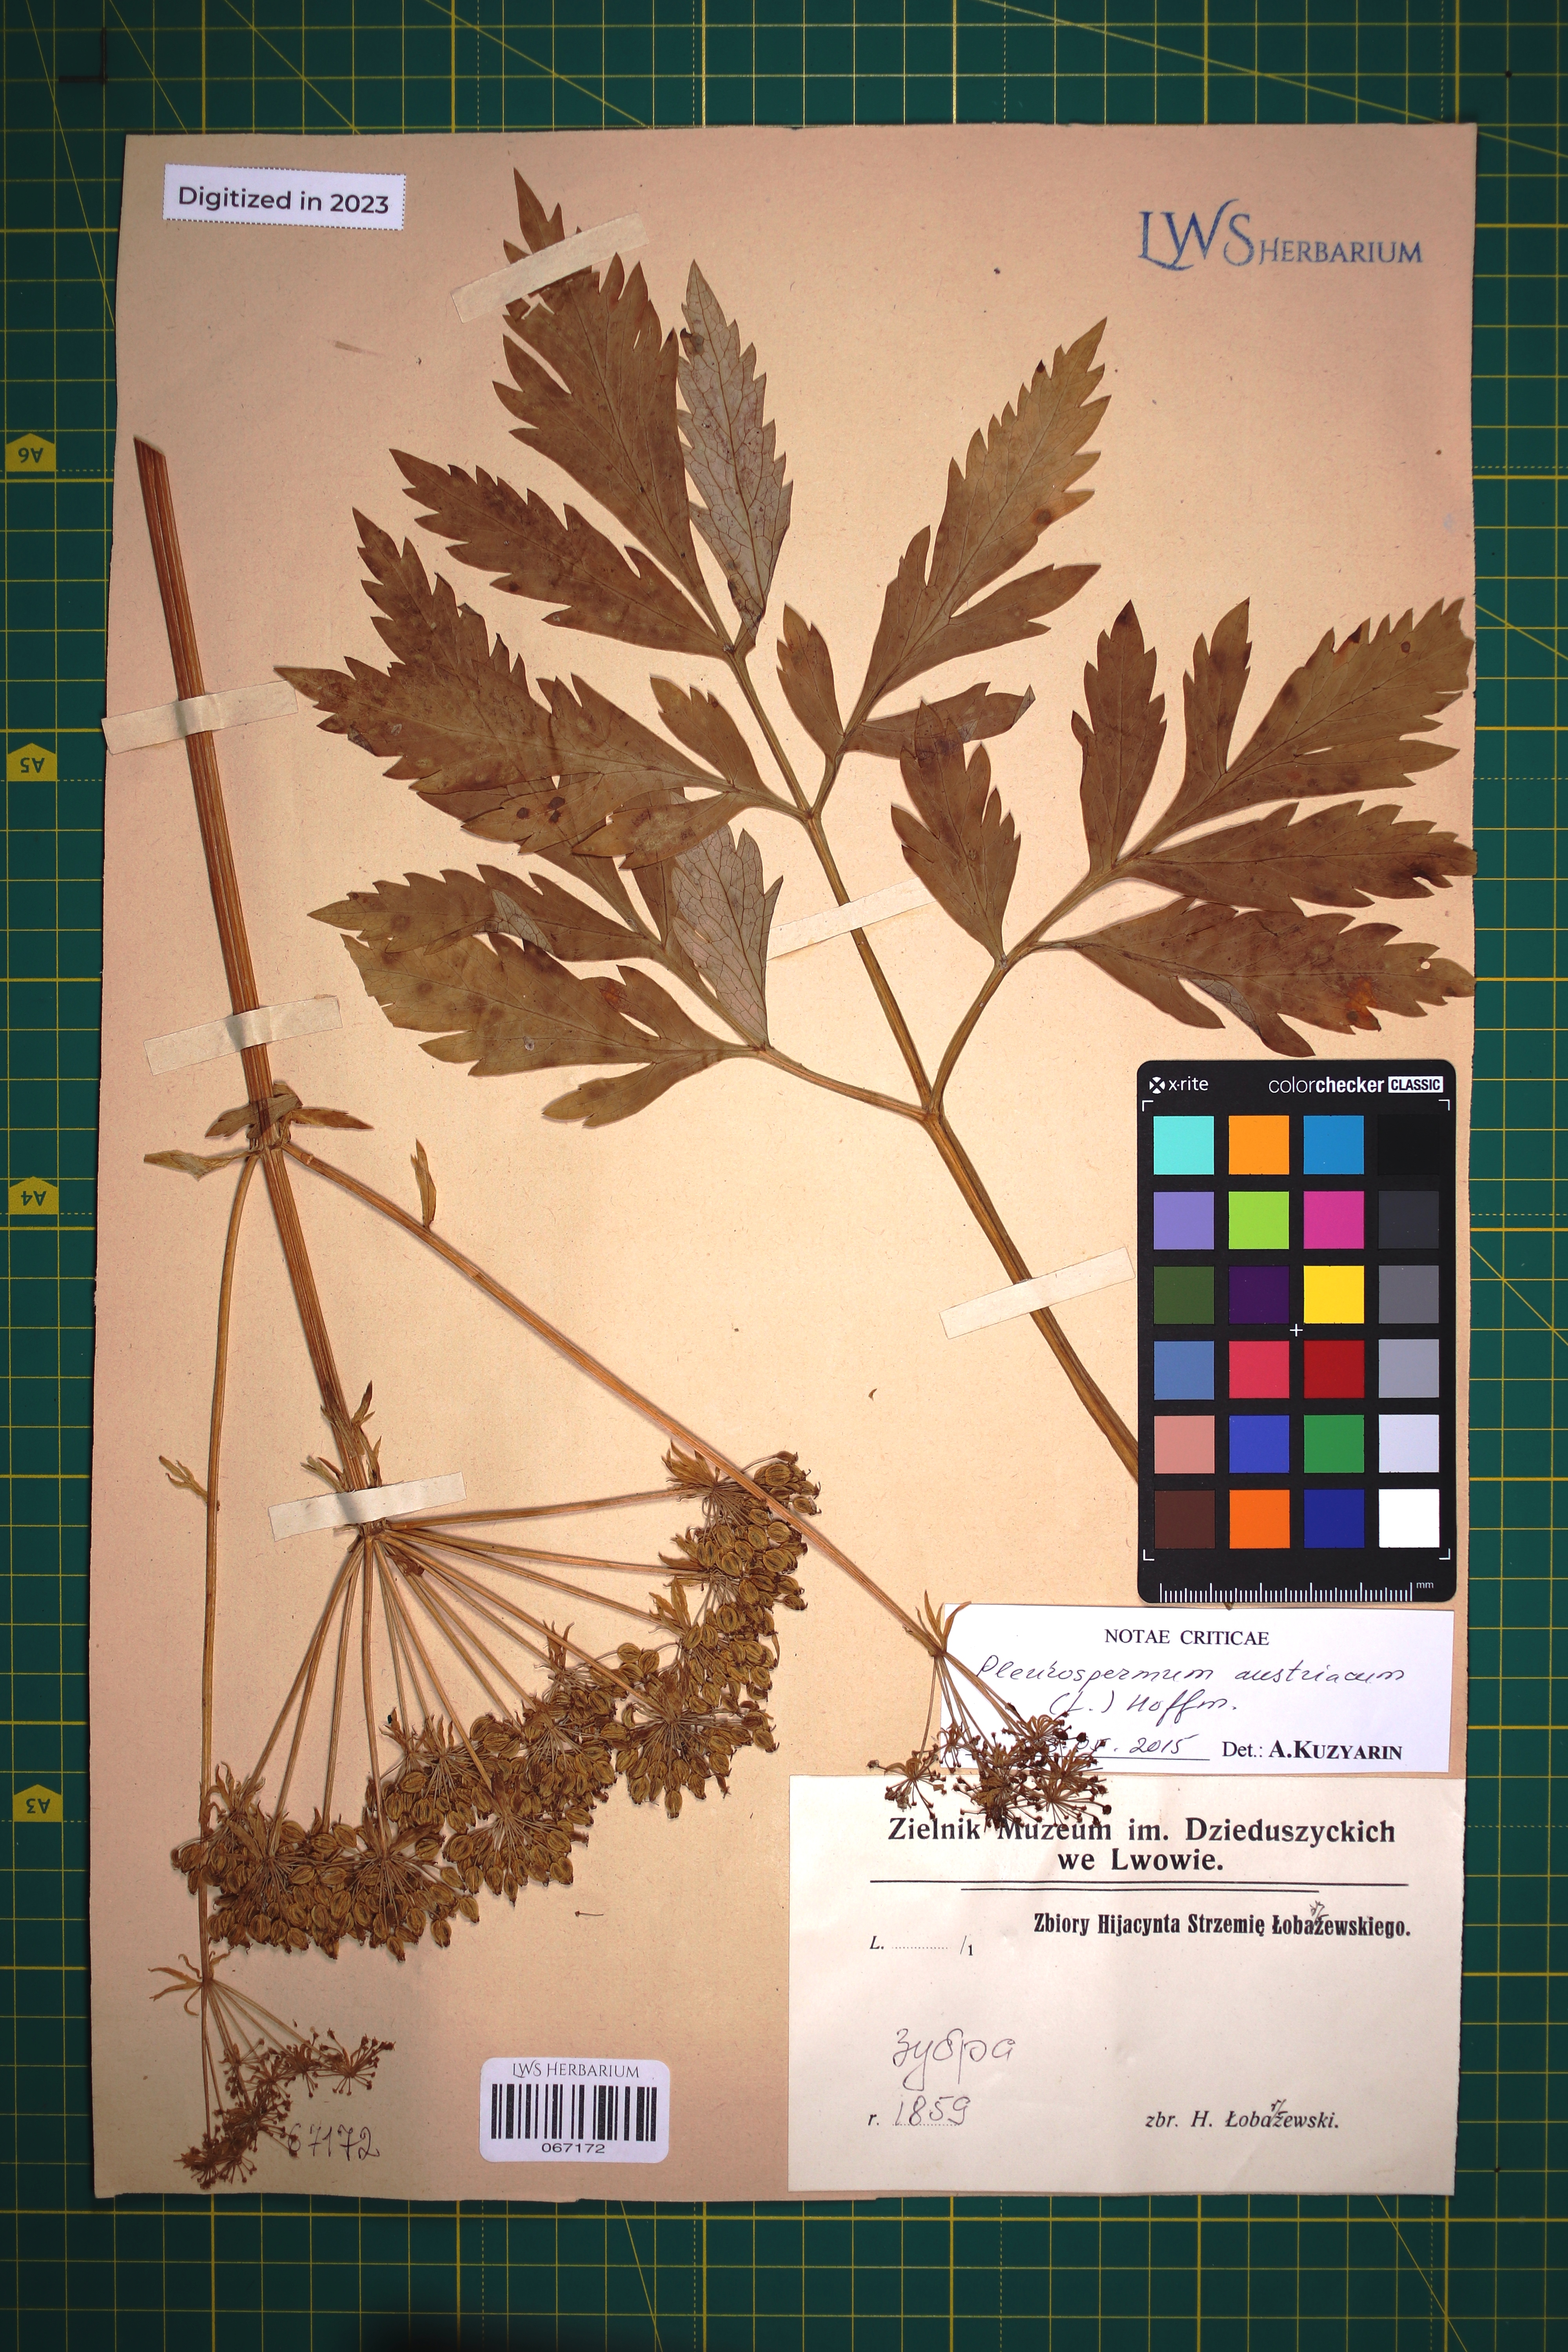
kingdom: Plantae
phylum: Tracheophyta
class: Magnoliopsida
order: Apiales
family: Apiaceae
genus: Pleurospermum
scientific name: Pleurospermum austriacum
